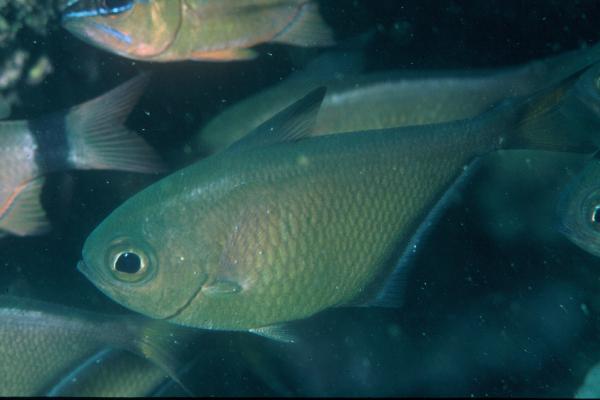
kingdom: Animalia
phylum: Chordata
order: Perciformes
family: Pempheridae
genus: Pempheris
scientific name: Pempheris
